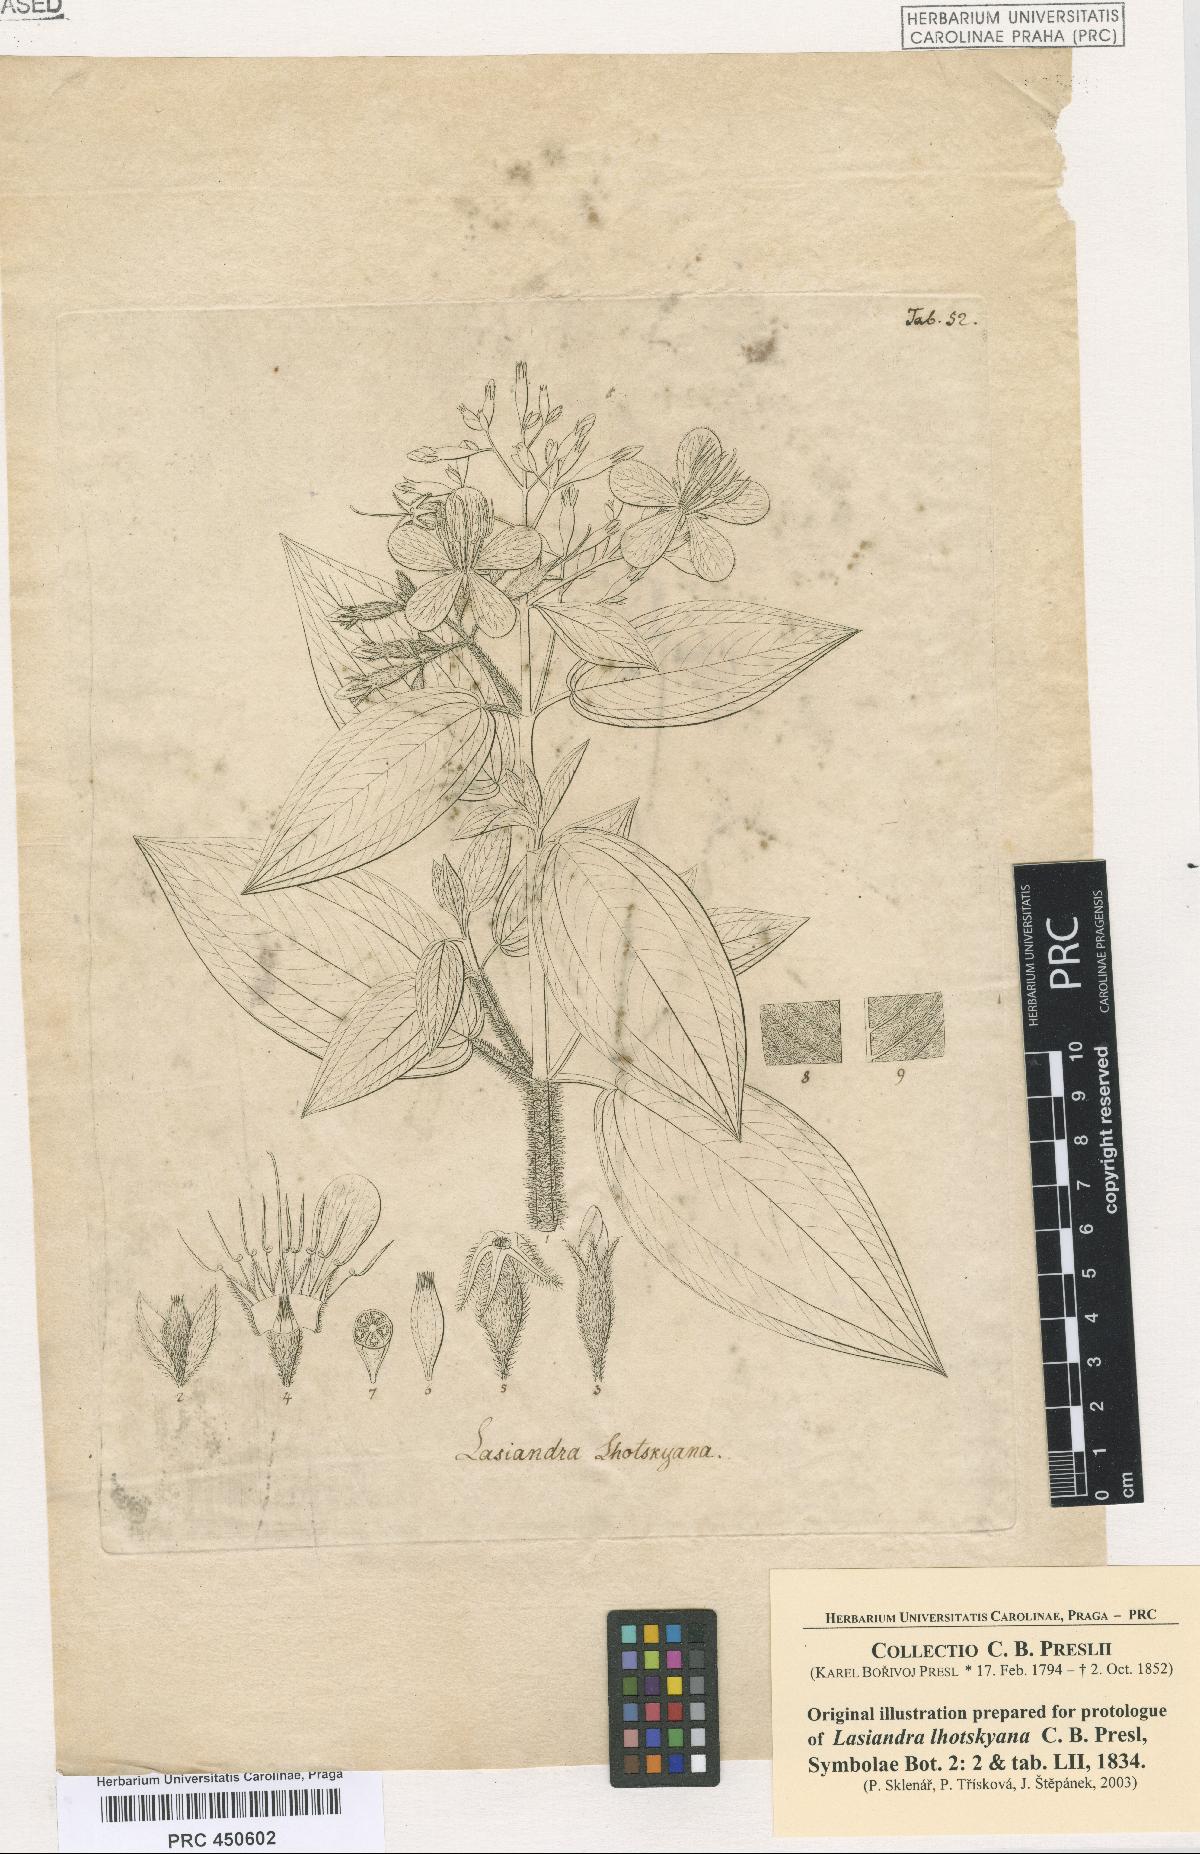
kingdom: Plantae
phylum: Tracheophyta
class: Magnoliopsida
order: Myrtales
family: Melastomataceae
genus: Chaetogastra
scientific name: Chaetogastra lhotskyana
